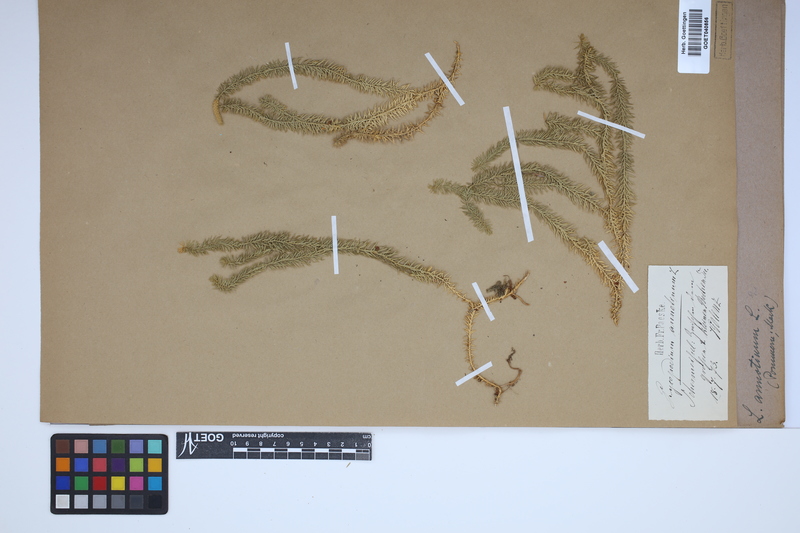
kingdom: Plantae
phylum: Tracheophyta
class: Lycopodiopsida
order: Lycopodiales
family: Lycopodiaceae
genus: Spinulum
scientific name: Spinulum annotinum
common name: Interrupted club-moss
